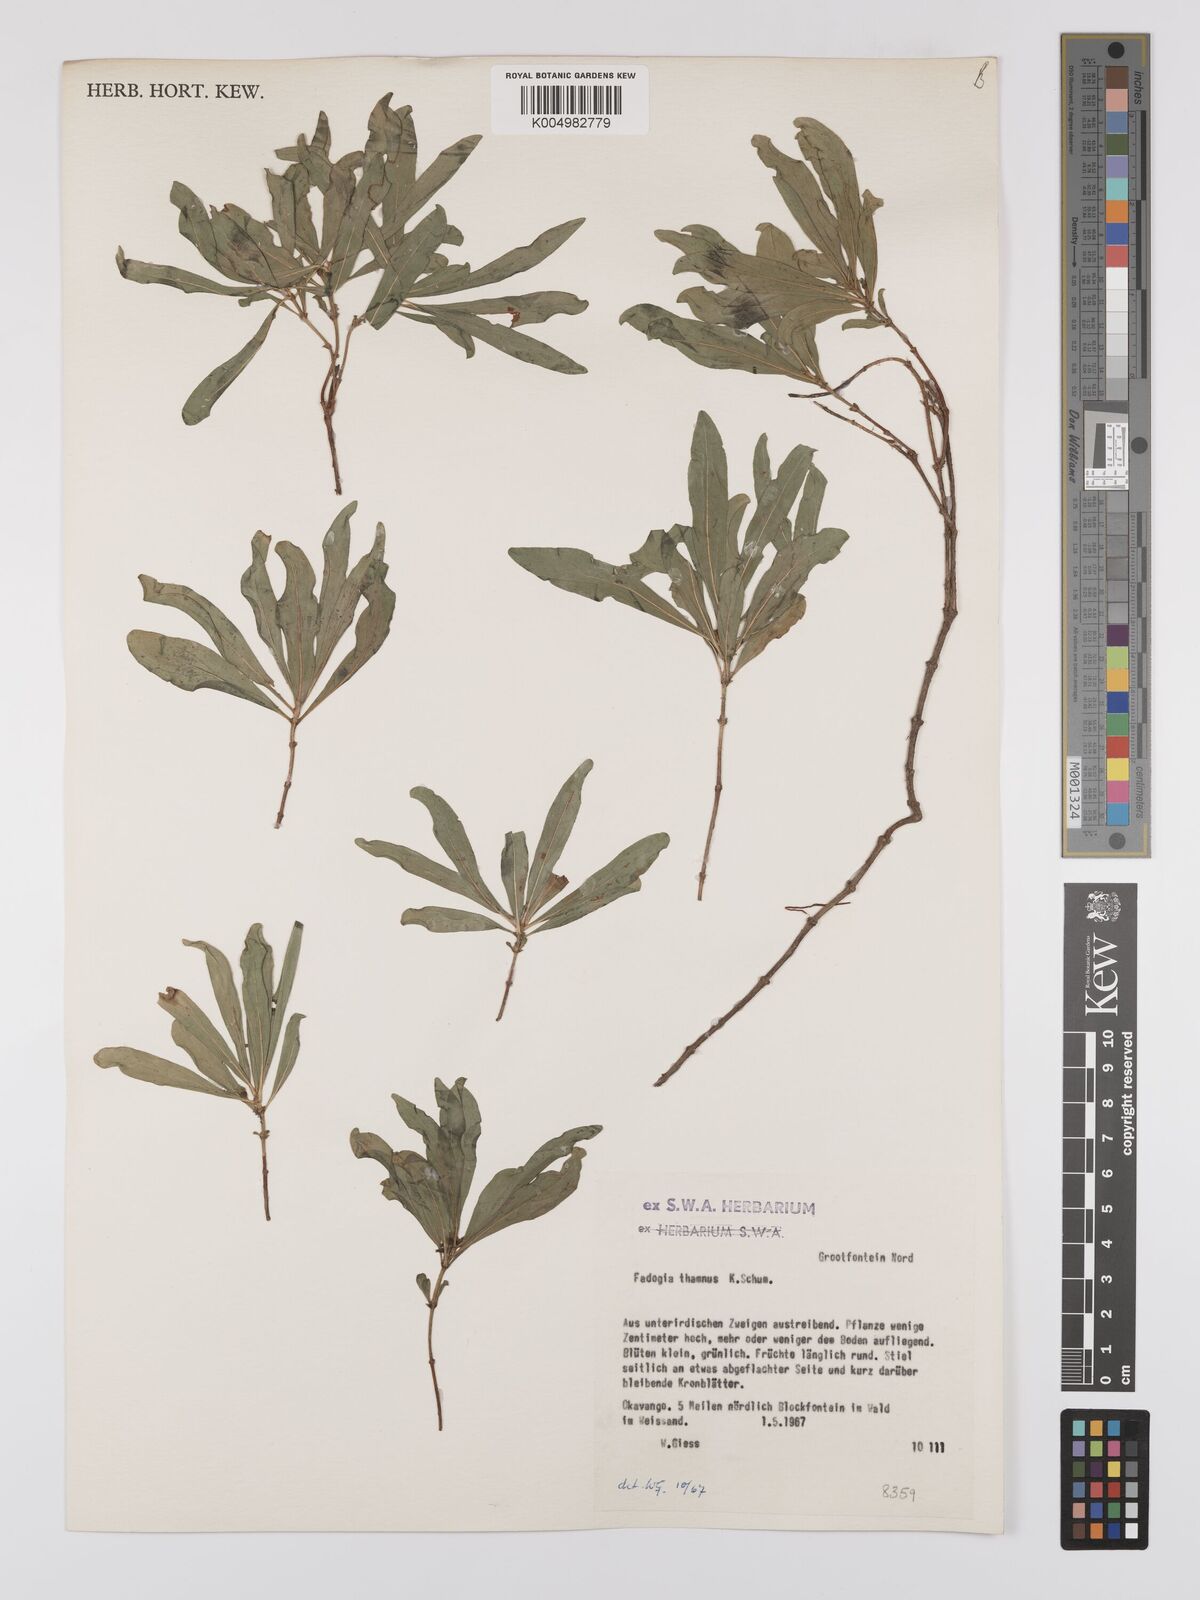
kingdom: Plantae
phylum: Tracheophyta
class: Magnoliopsida
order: Gentianales
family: Rubiaceae
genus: Fadogia
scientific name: Fadogia
